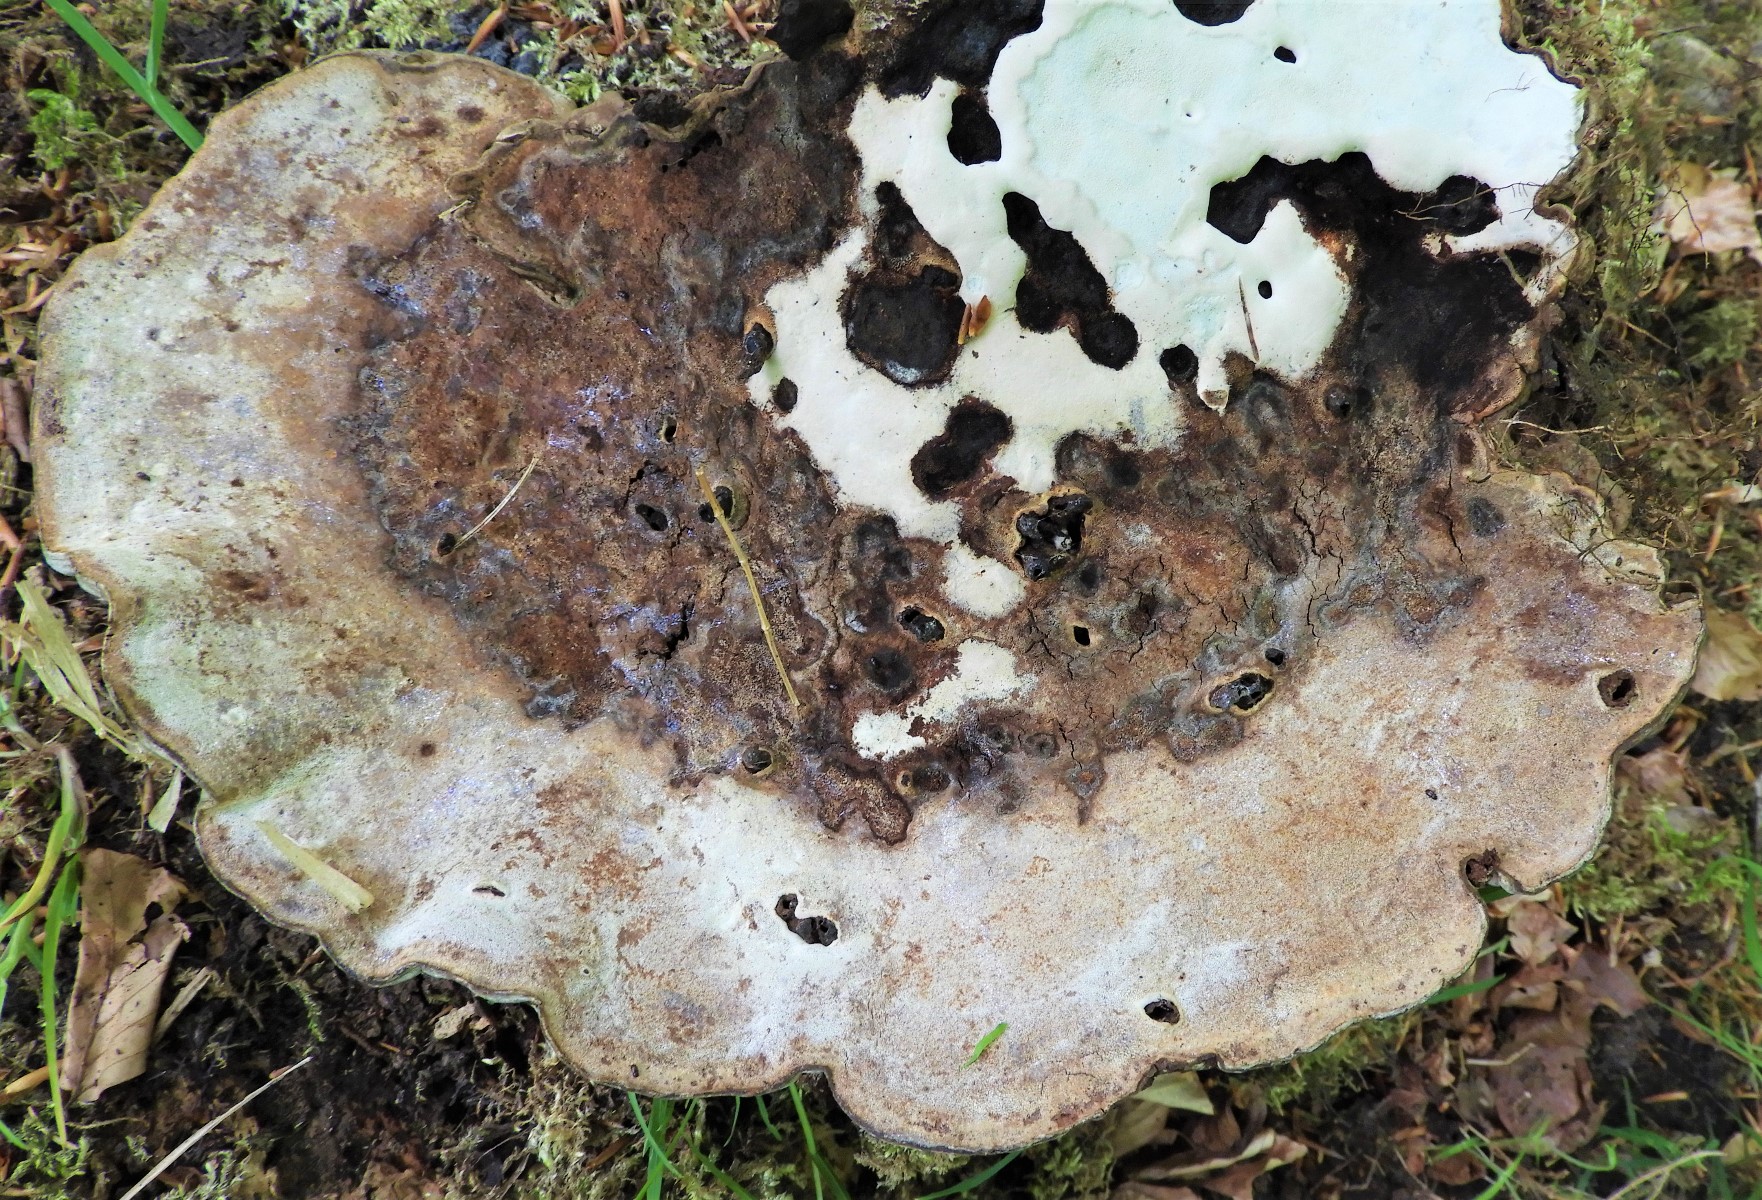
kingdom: Fungi
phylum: Basidiomycota
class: Agaricomycetes
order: Polyporales
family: Polyporaceae
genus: Ganoderma
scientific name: Ganoderma applanatum
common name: flad lakporesvamp
